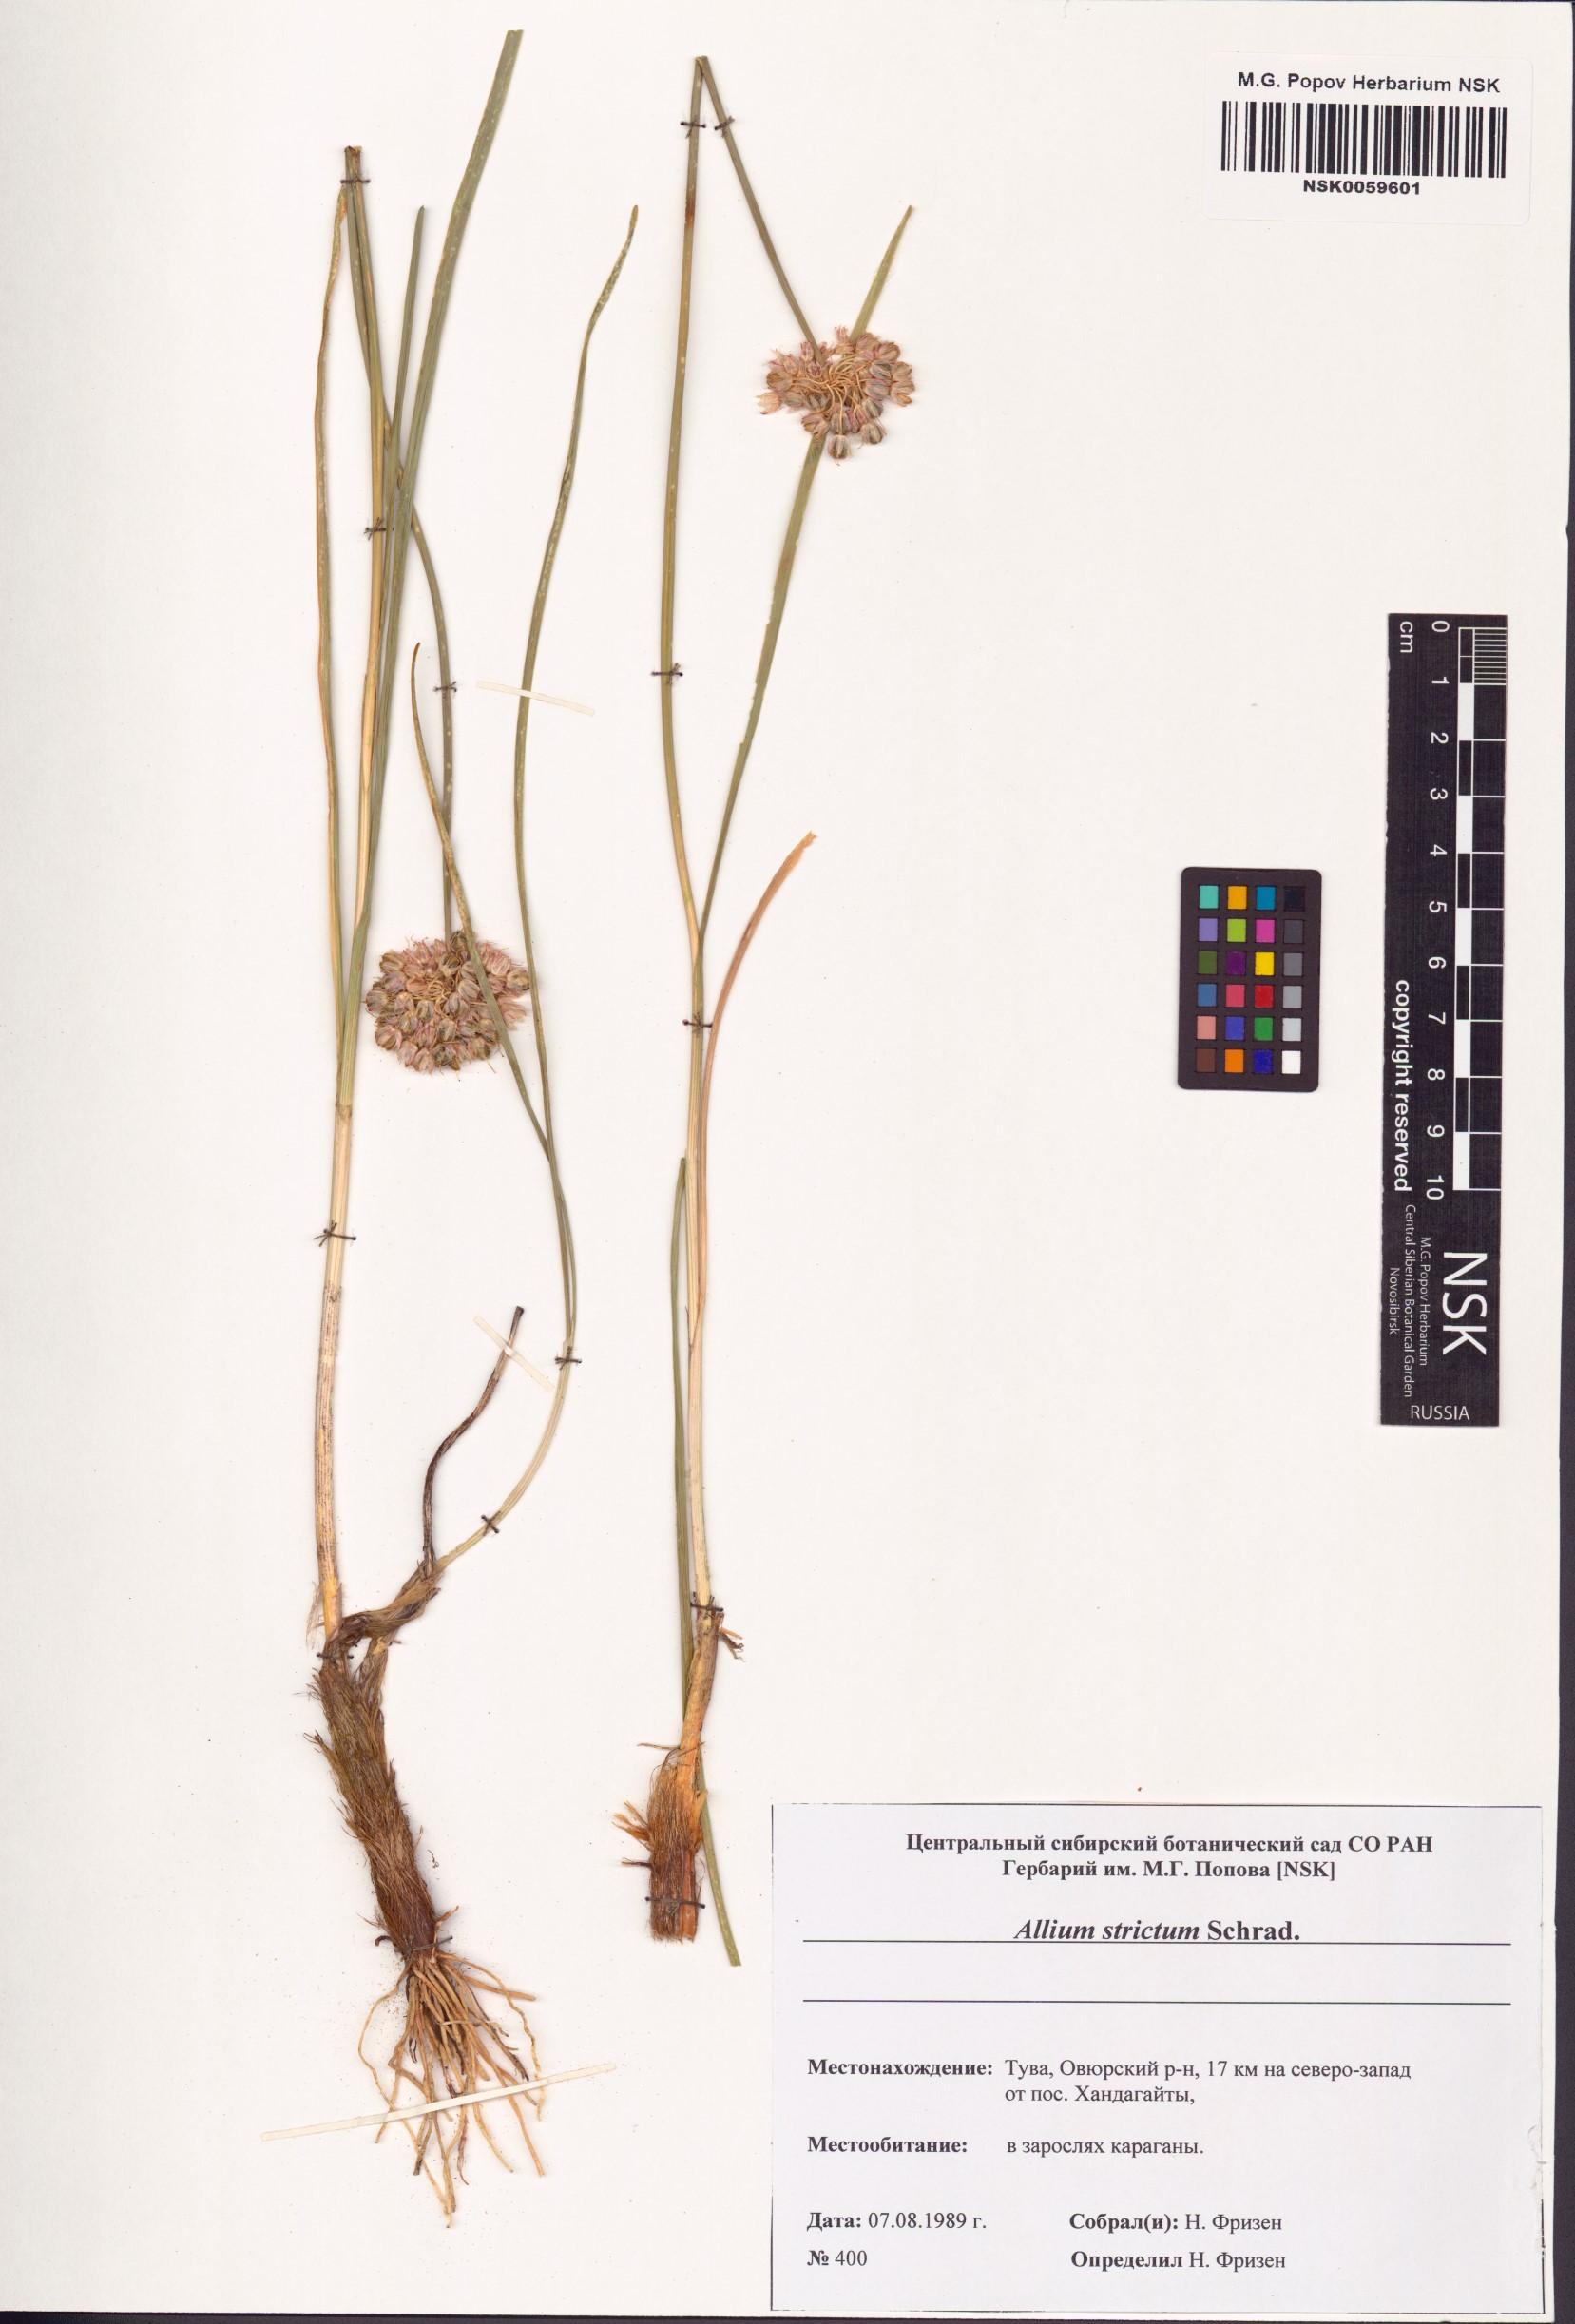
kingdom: Plantae
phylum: Tracheophyta
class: Liliopsida
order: Asparagales
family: Amaryllidaceae
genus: Allium
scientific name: Allium strictum
